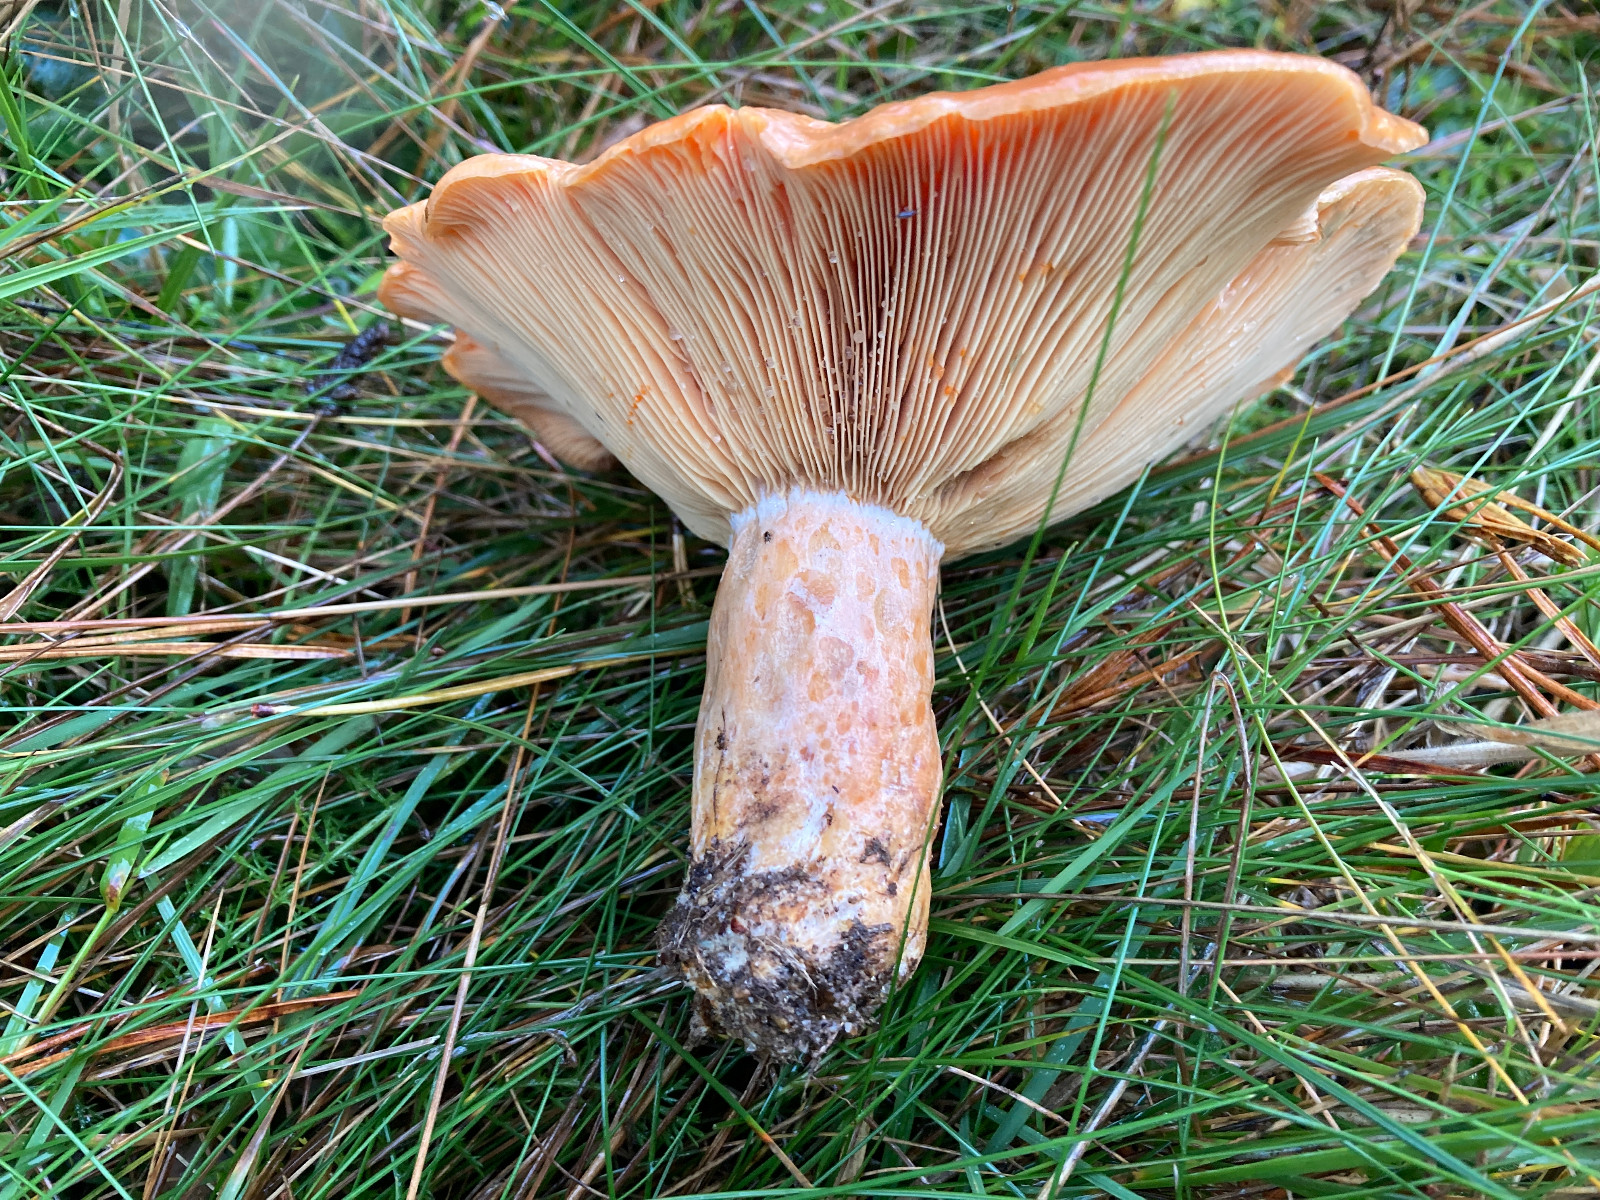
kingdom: Fungi
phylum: Basidiomycota
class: Agaricomycetes
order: Russulales
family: Russulaceae
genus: Lactarius
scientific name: Lactarius deliciosus
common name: velsmagende mælkehat
